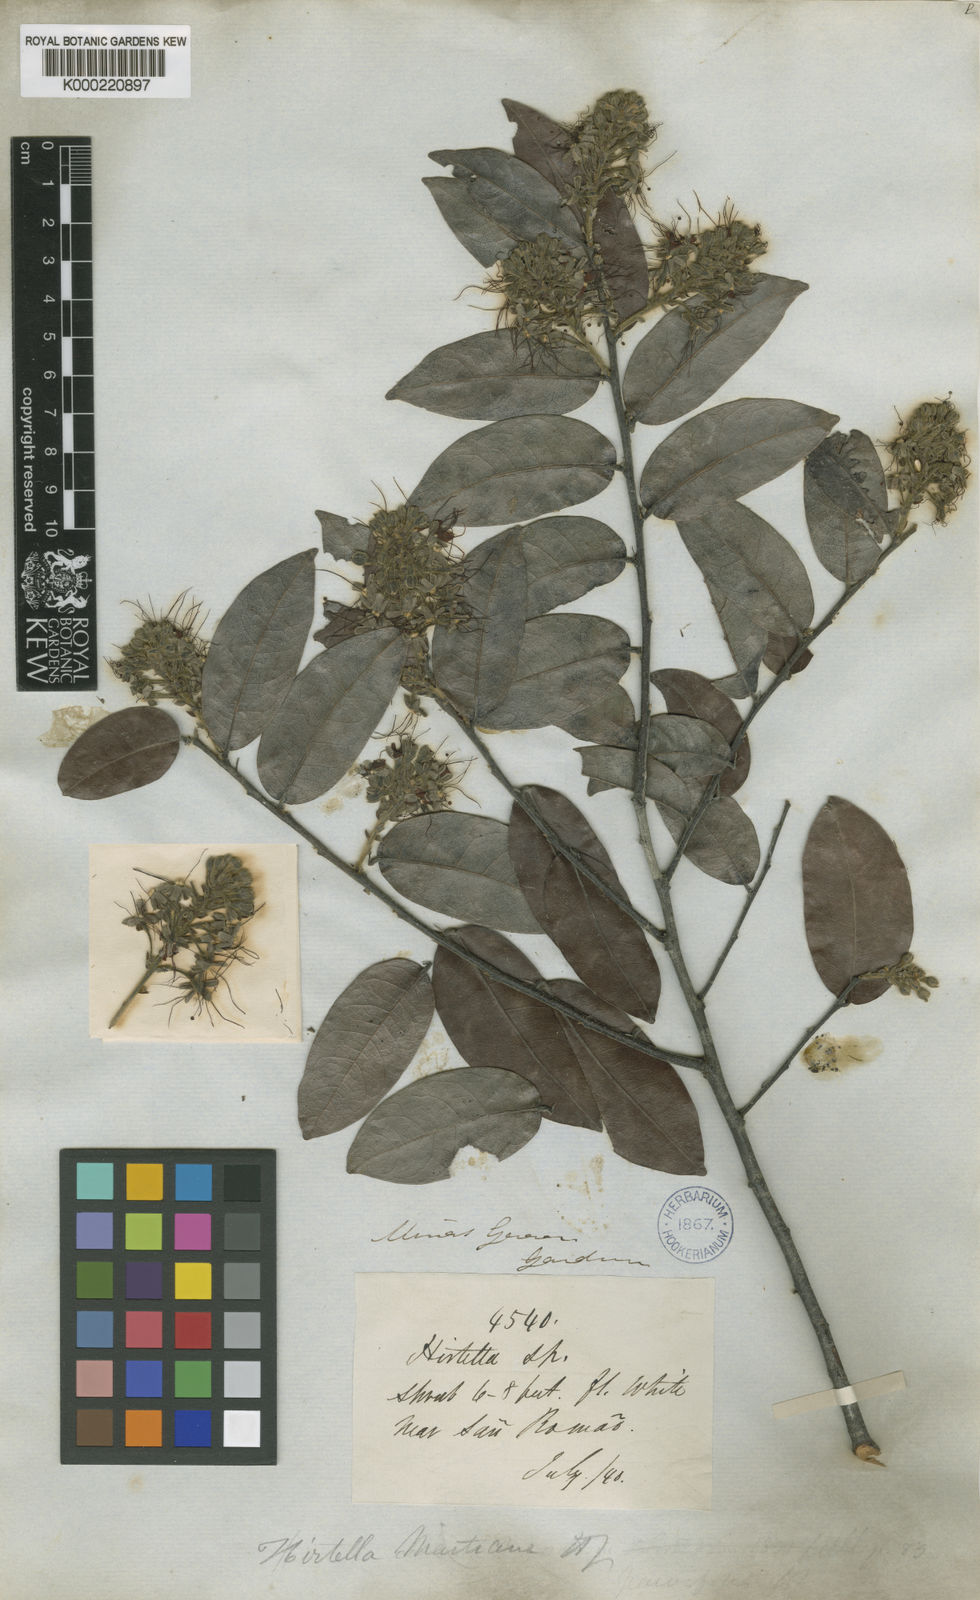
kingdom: Plantae
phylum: Tracheophyta
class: Magnoliopsida
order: Malpighiales
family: Chrysobalanaceae
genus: Hirtella
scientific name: Hirtella martiana
